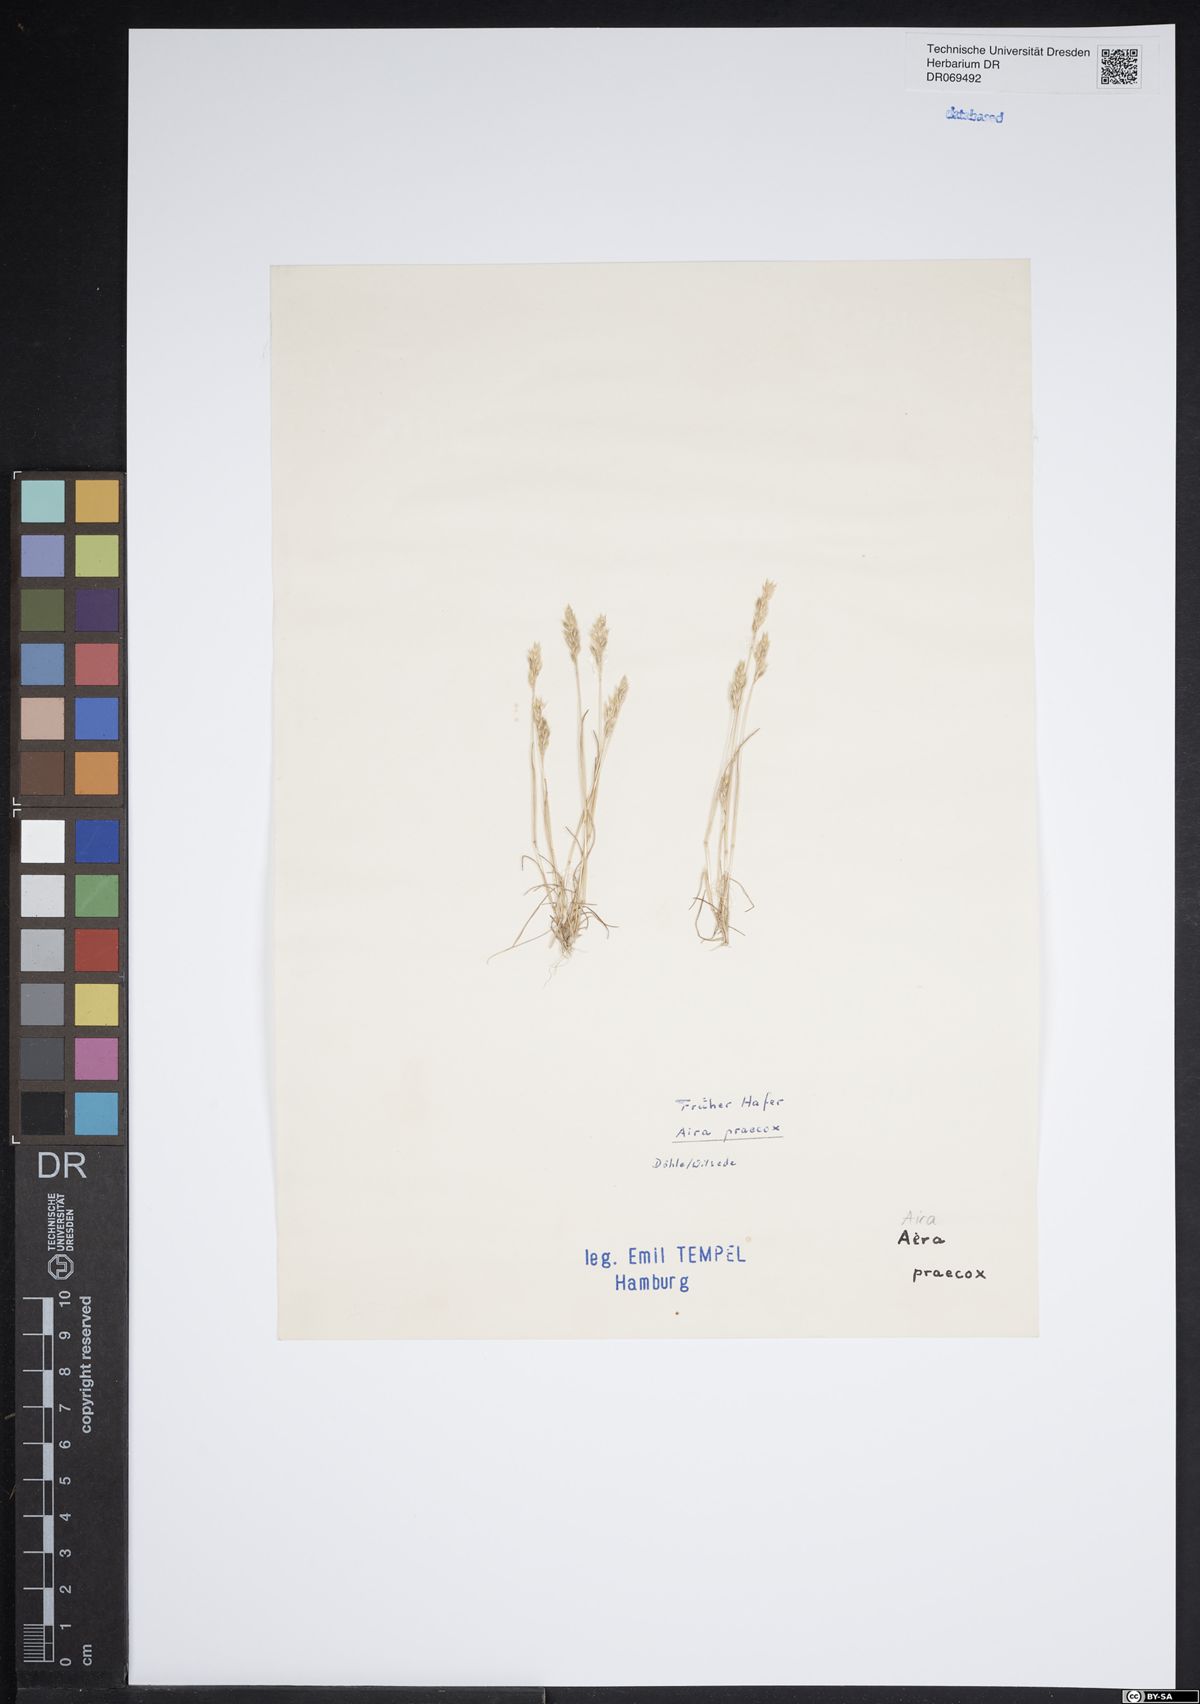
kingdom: Plantae
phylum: Tracheophyta
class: Liliopsida
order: Poales
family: Poaceae
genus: Aira
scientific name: Aira praecox
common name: Early hair-grass
